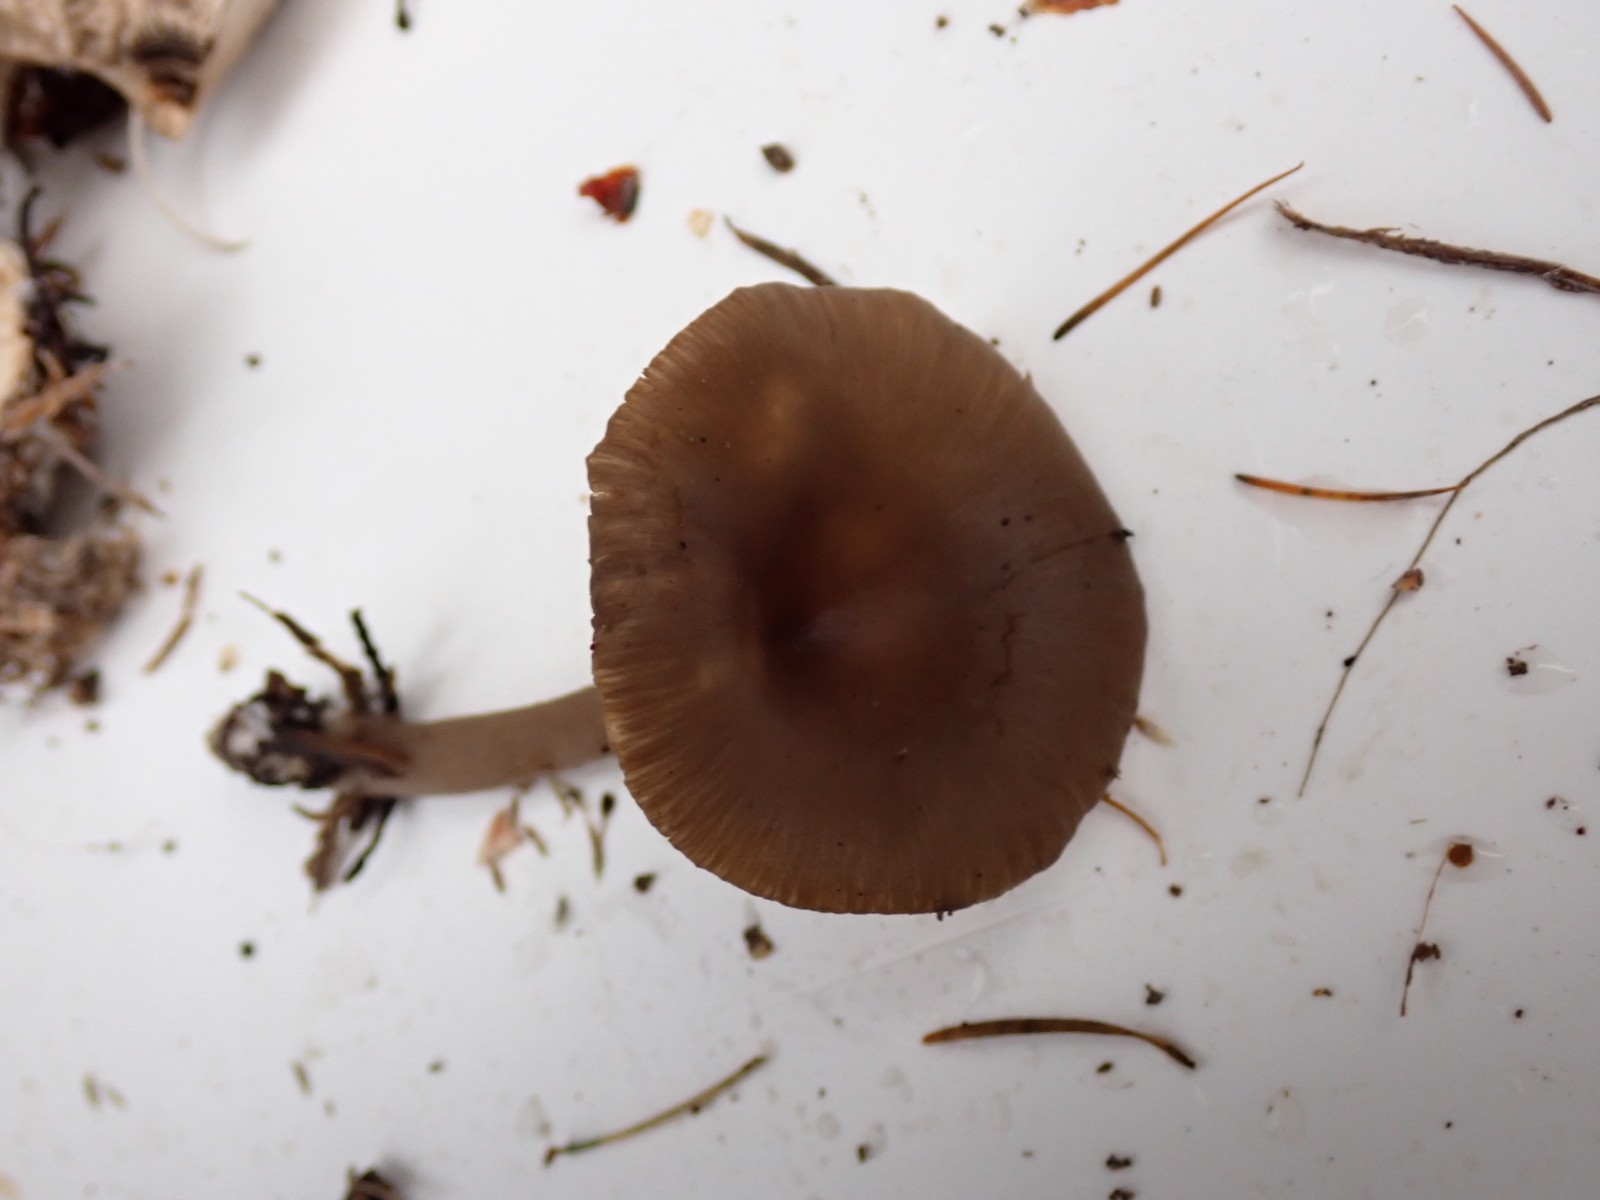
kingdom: Fungi
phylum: Basidiomycota
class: Agaricomycetes
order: Agaricales
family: Pseudoclitocybaceae
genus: Pseudoclitocybe
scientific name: Pseudoclitocybe cyathiformis
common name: almindelig bægertragthat
